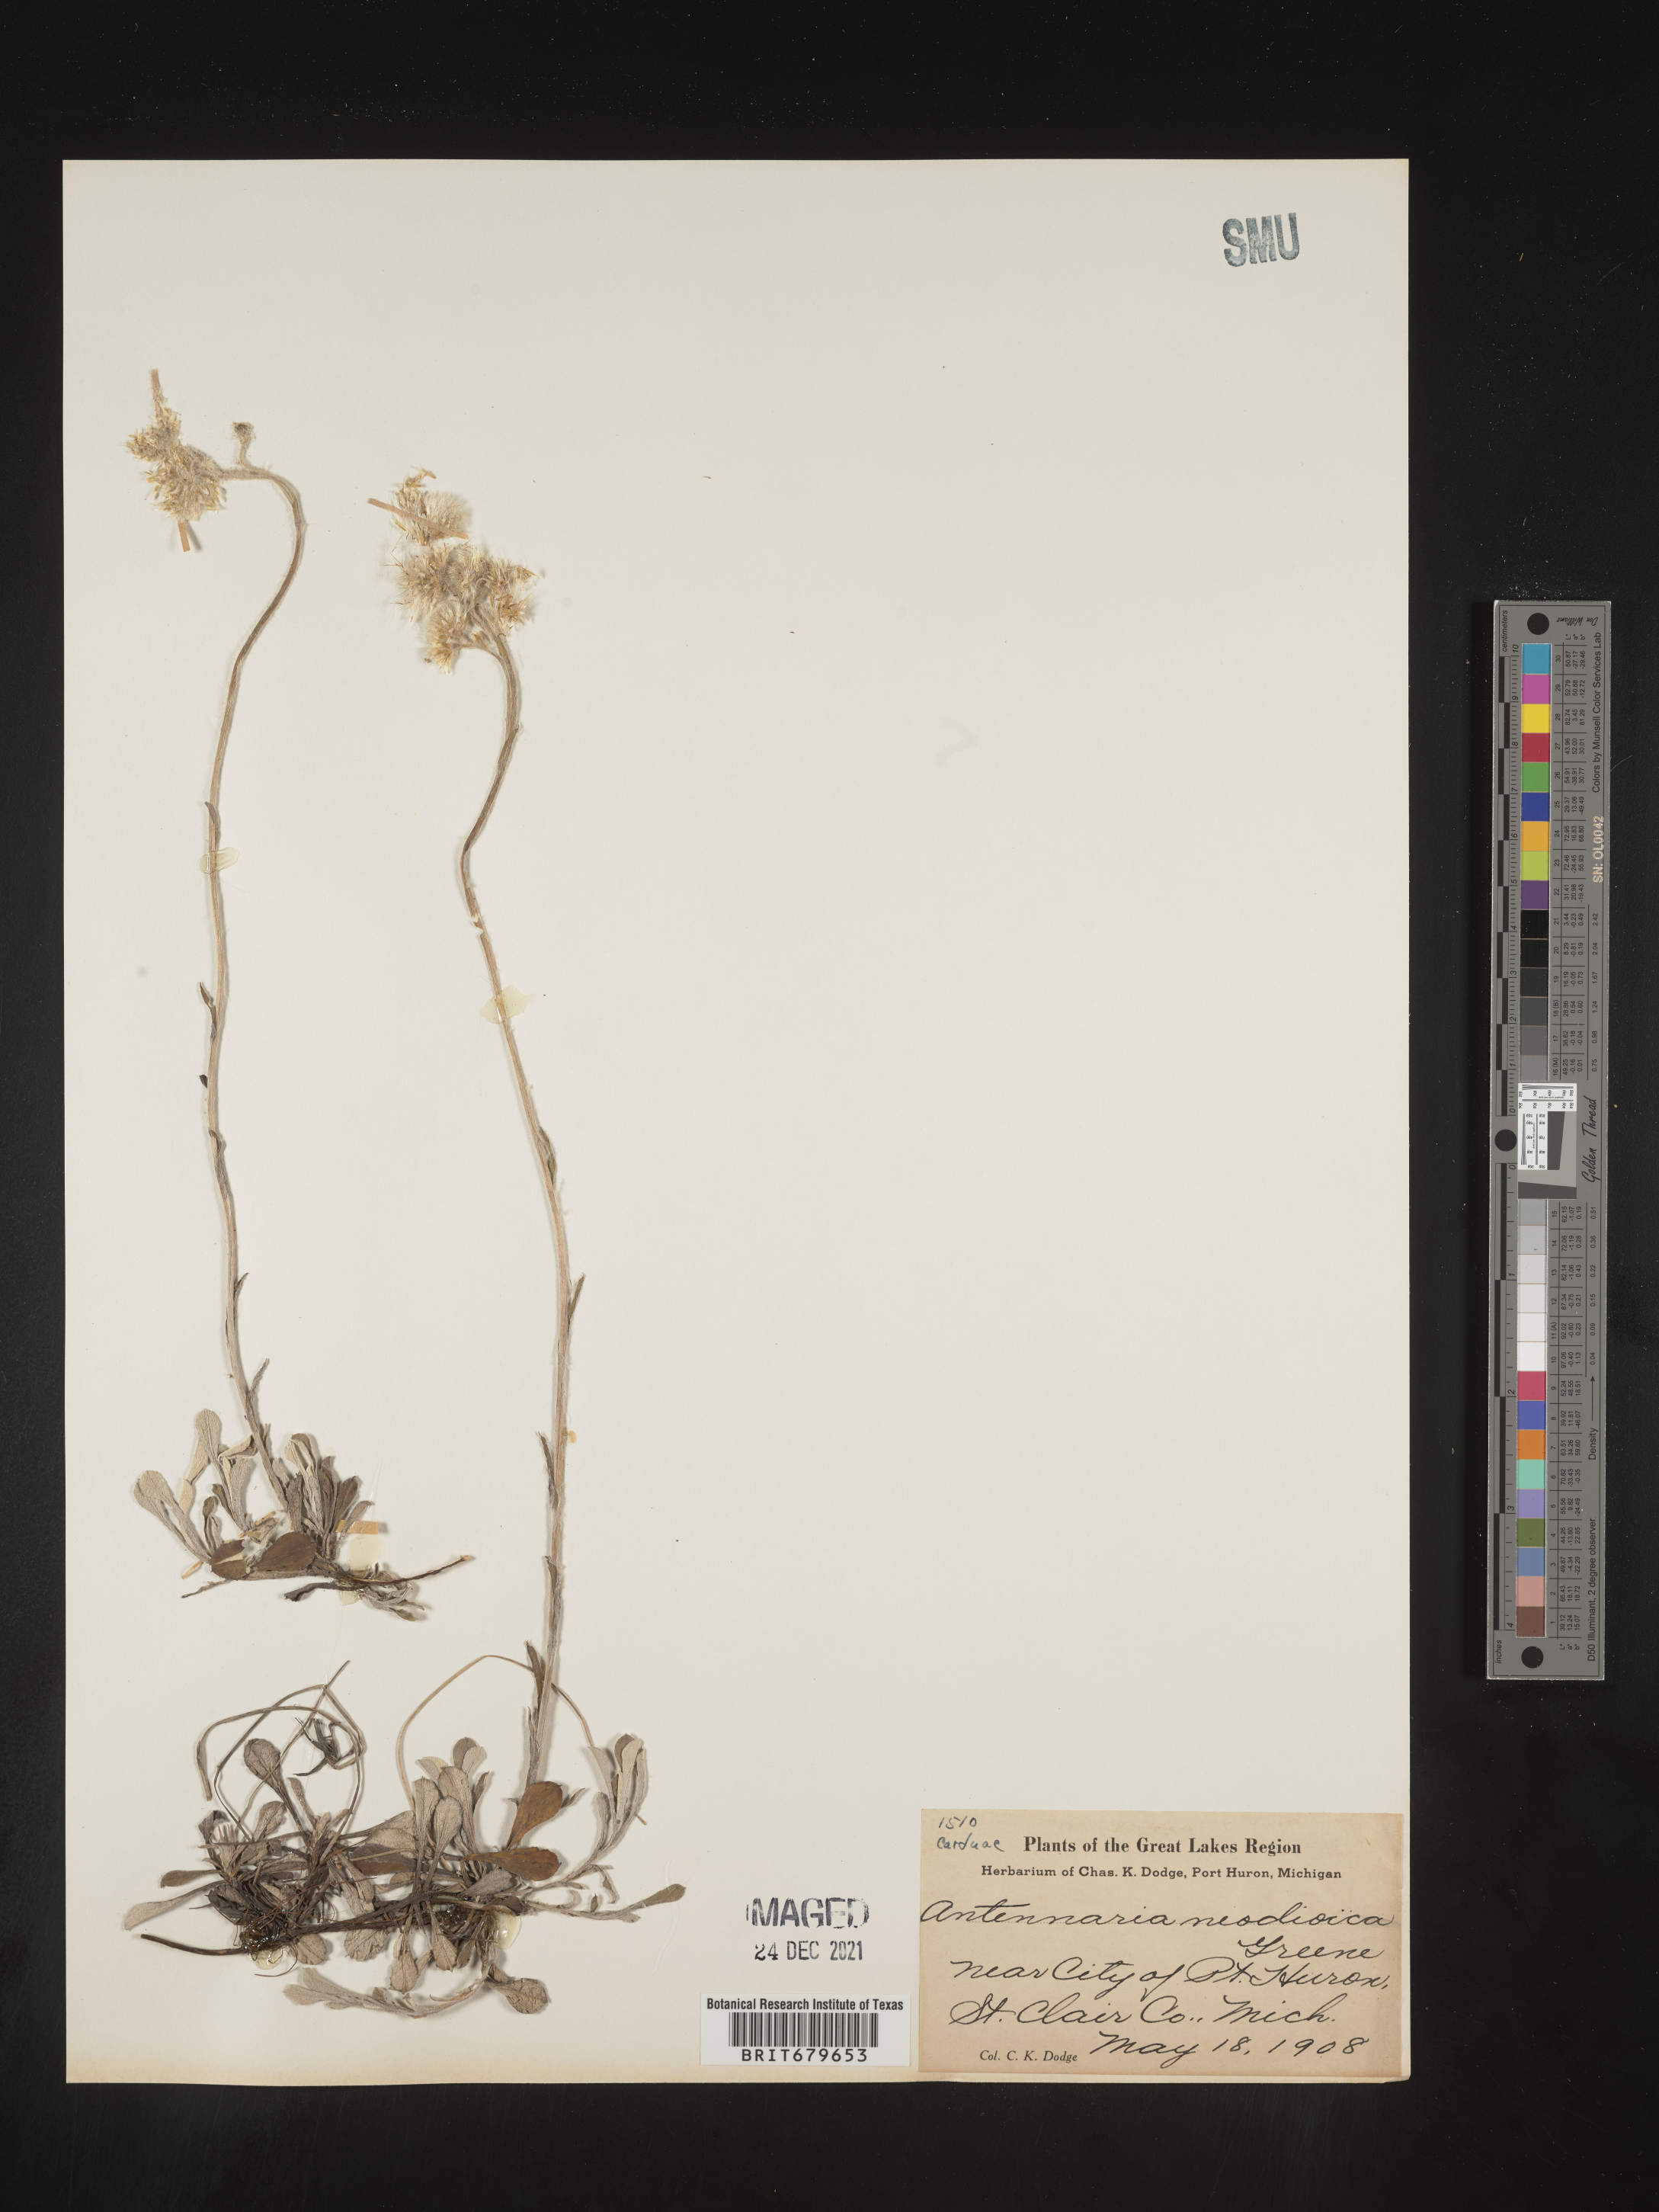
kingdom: Plantae
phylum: Tracheophyta
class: Magnoliopsida
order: Asterales
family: Asteraceae
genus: Antennaria
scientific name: Antennaria howellii
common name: Howell's pussytoes
